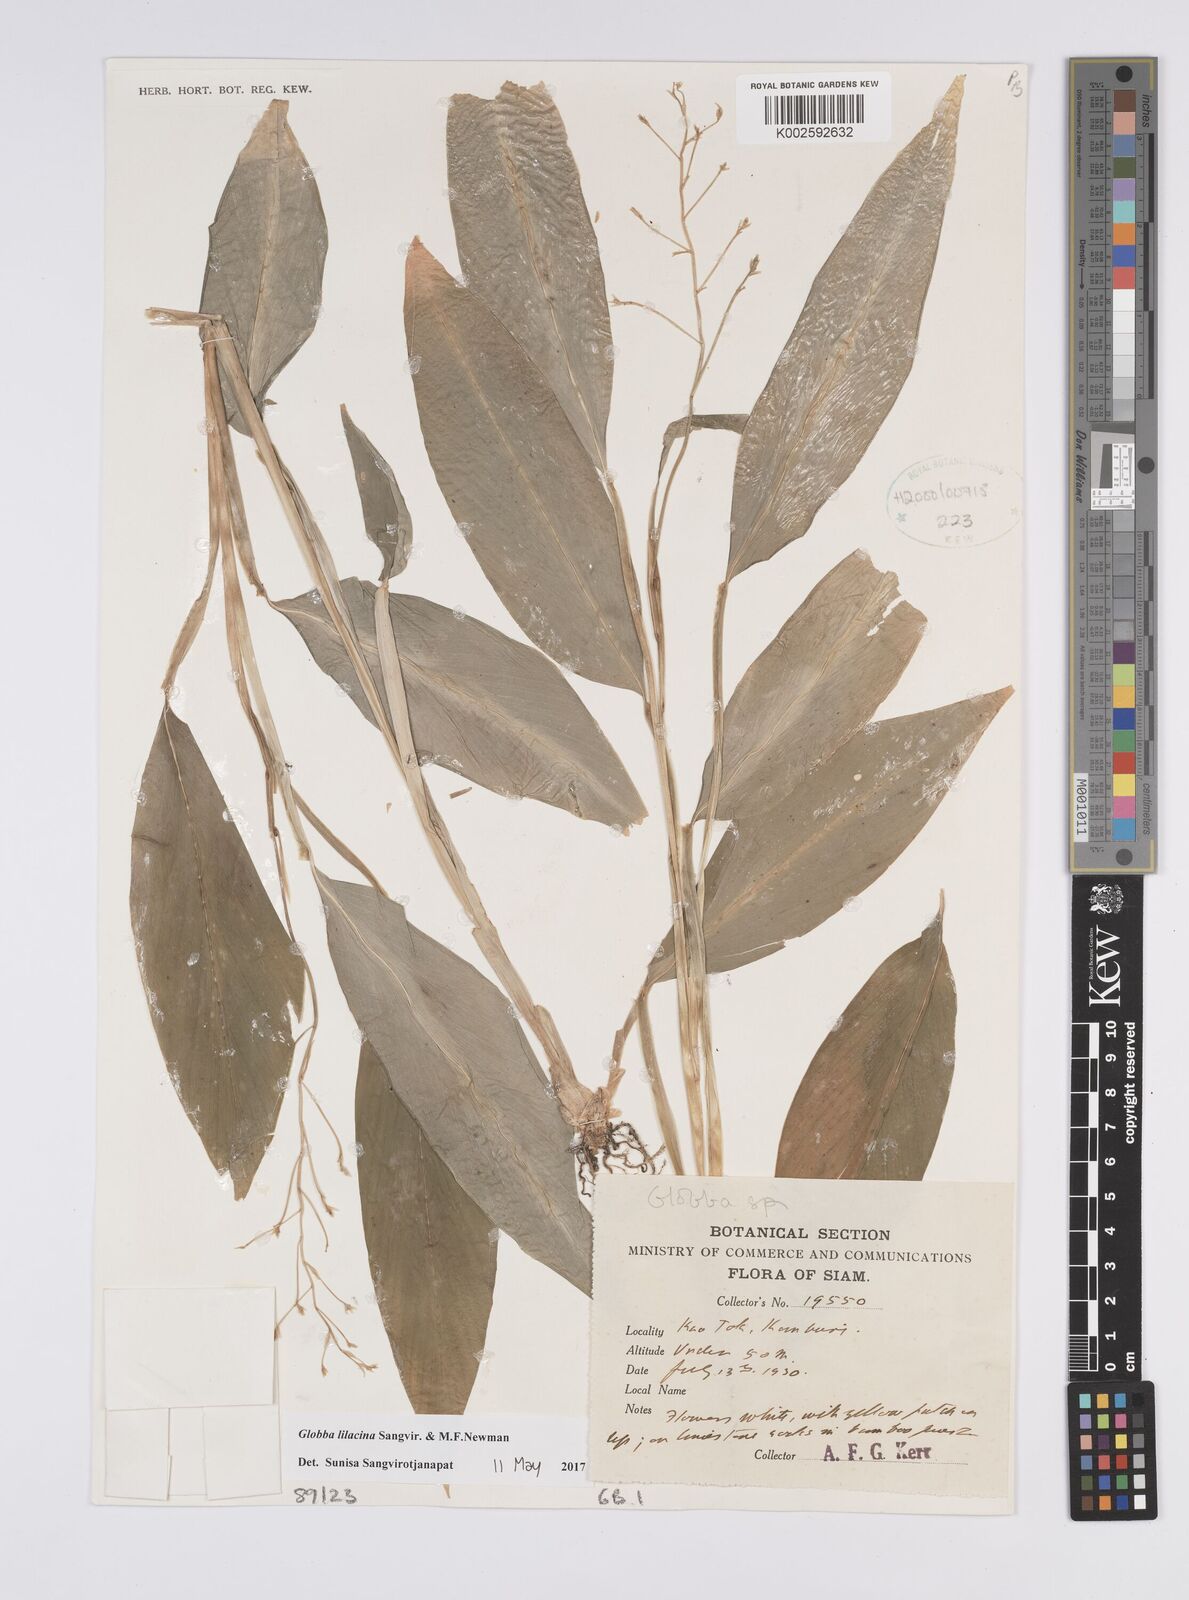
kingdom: Plantae
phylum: Tracheophyta
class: Liliopsida
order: Zingiberales
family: Zingiberaceae
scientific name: Zingiberaceae
